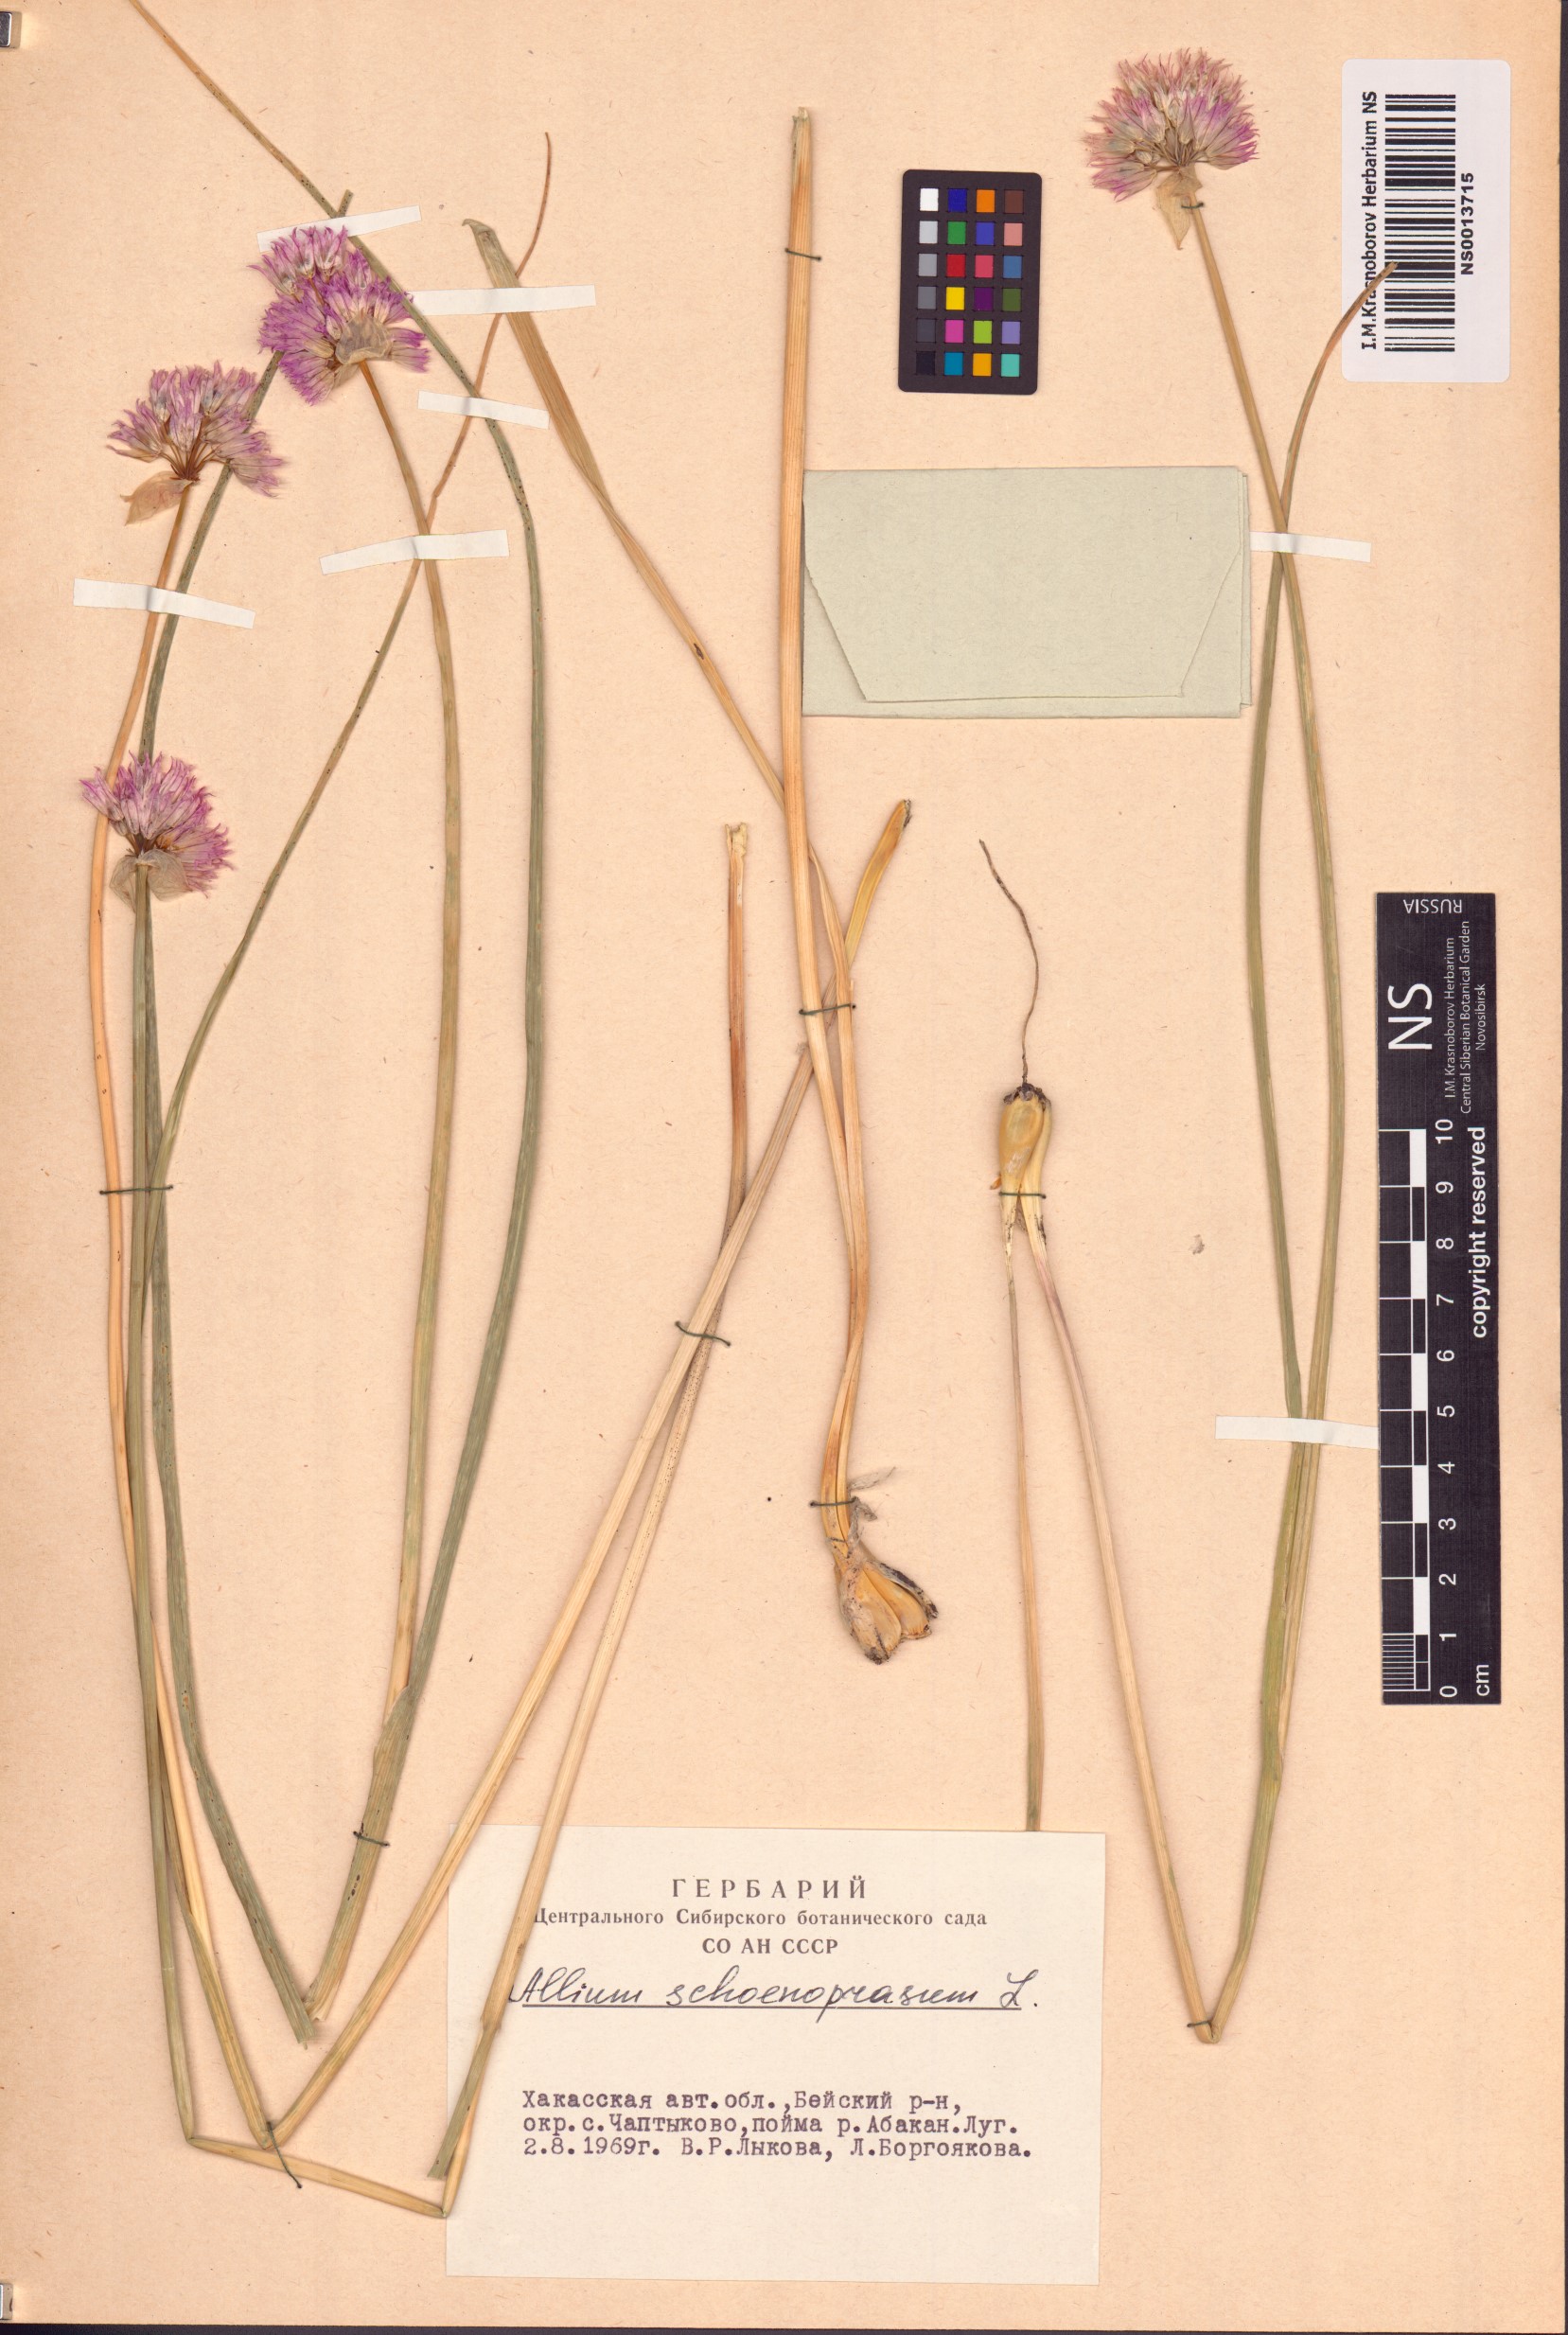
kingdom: Plantae
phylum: Tracheophyta
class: Liliopsida
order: Asparagales
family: Amaryllidaceae
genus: Allium
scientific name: Allium schoenoprasum
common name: Chives
